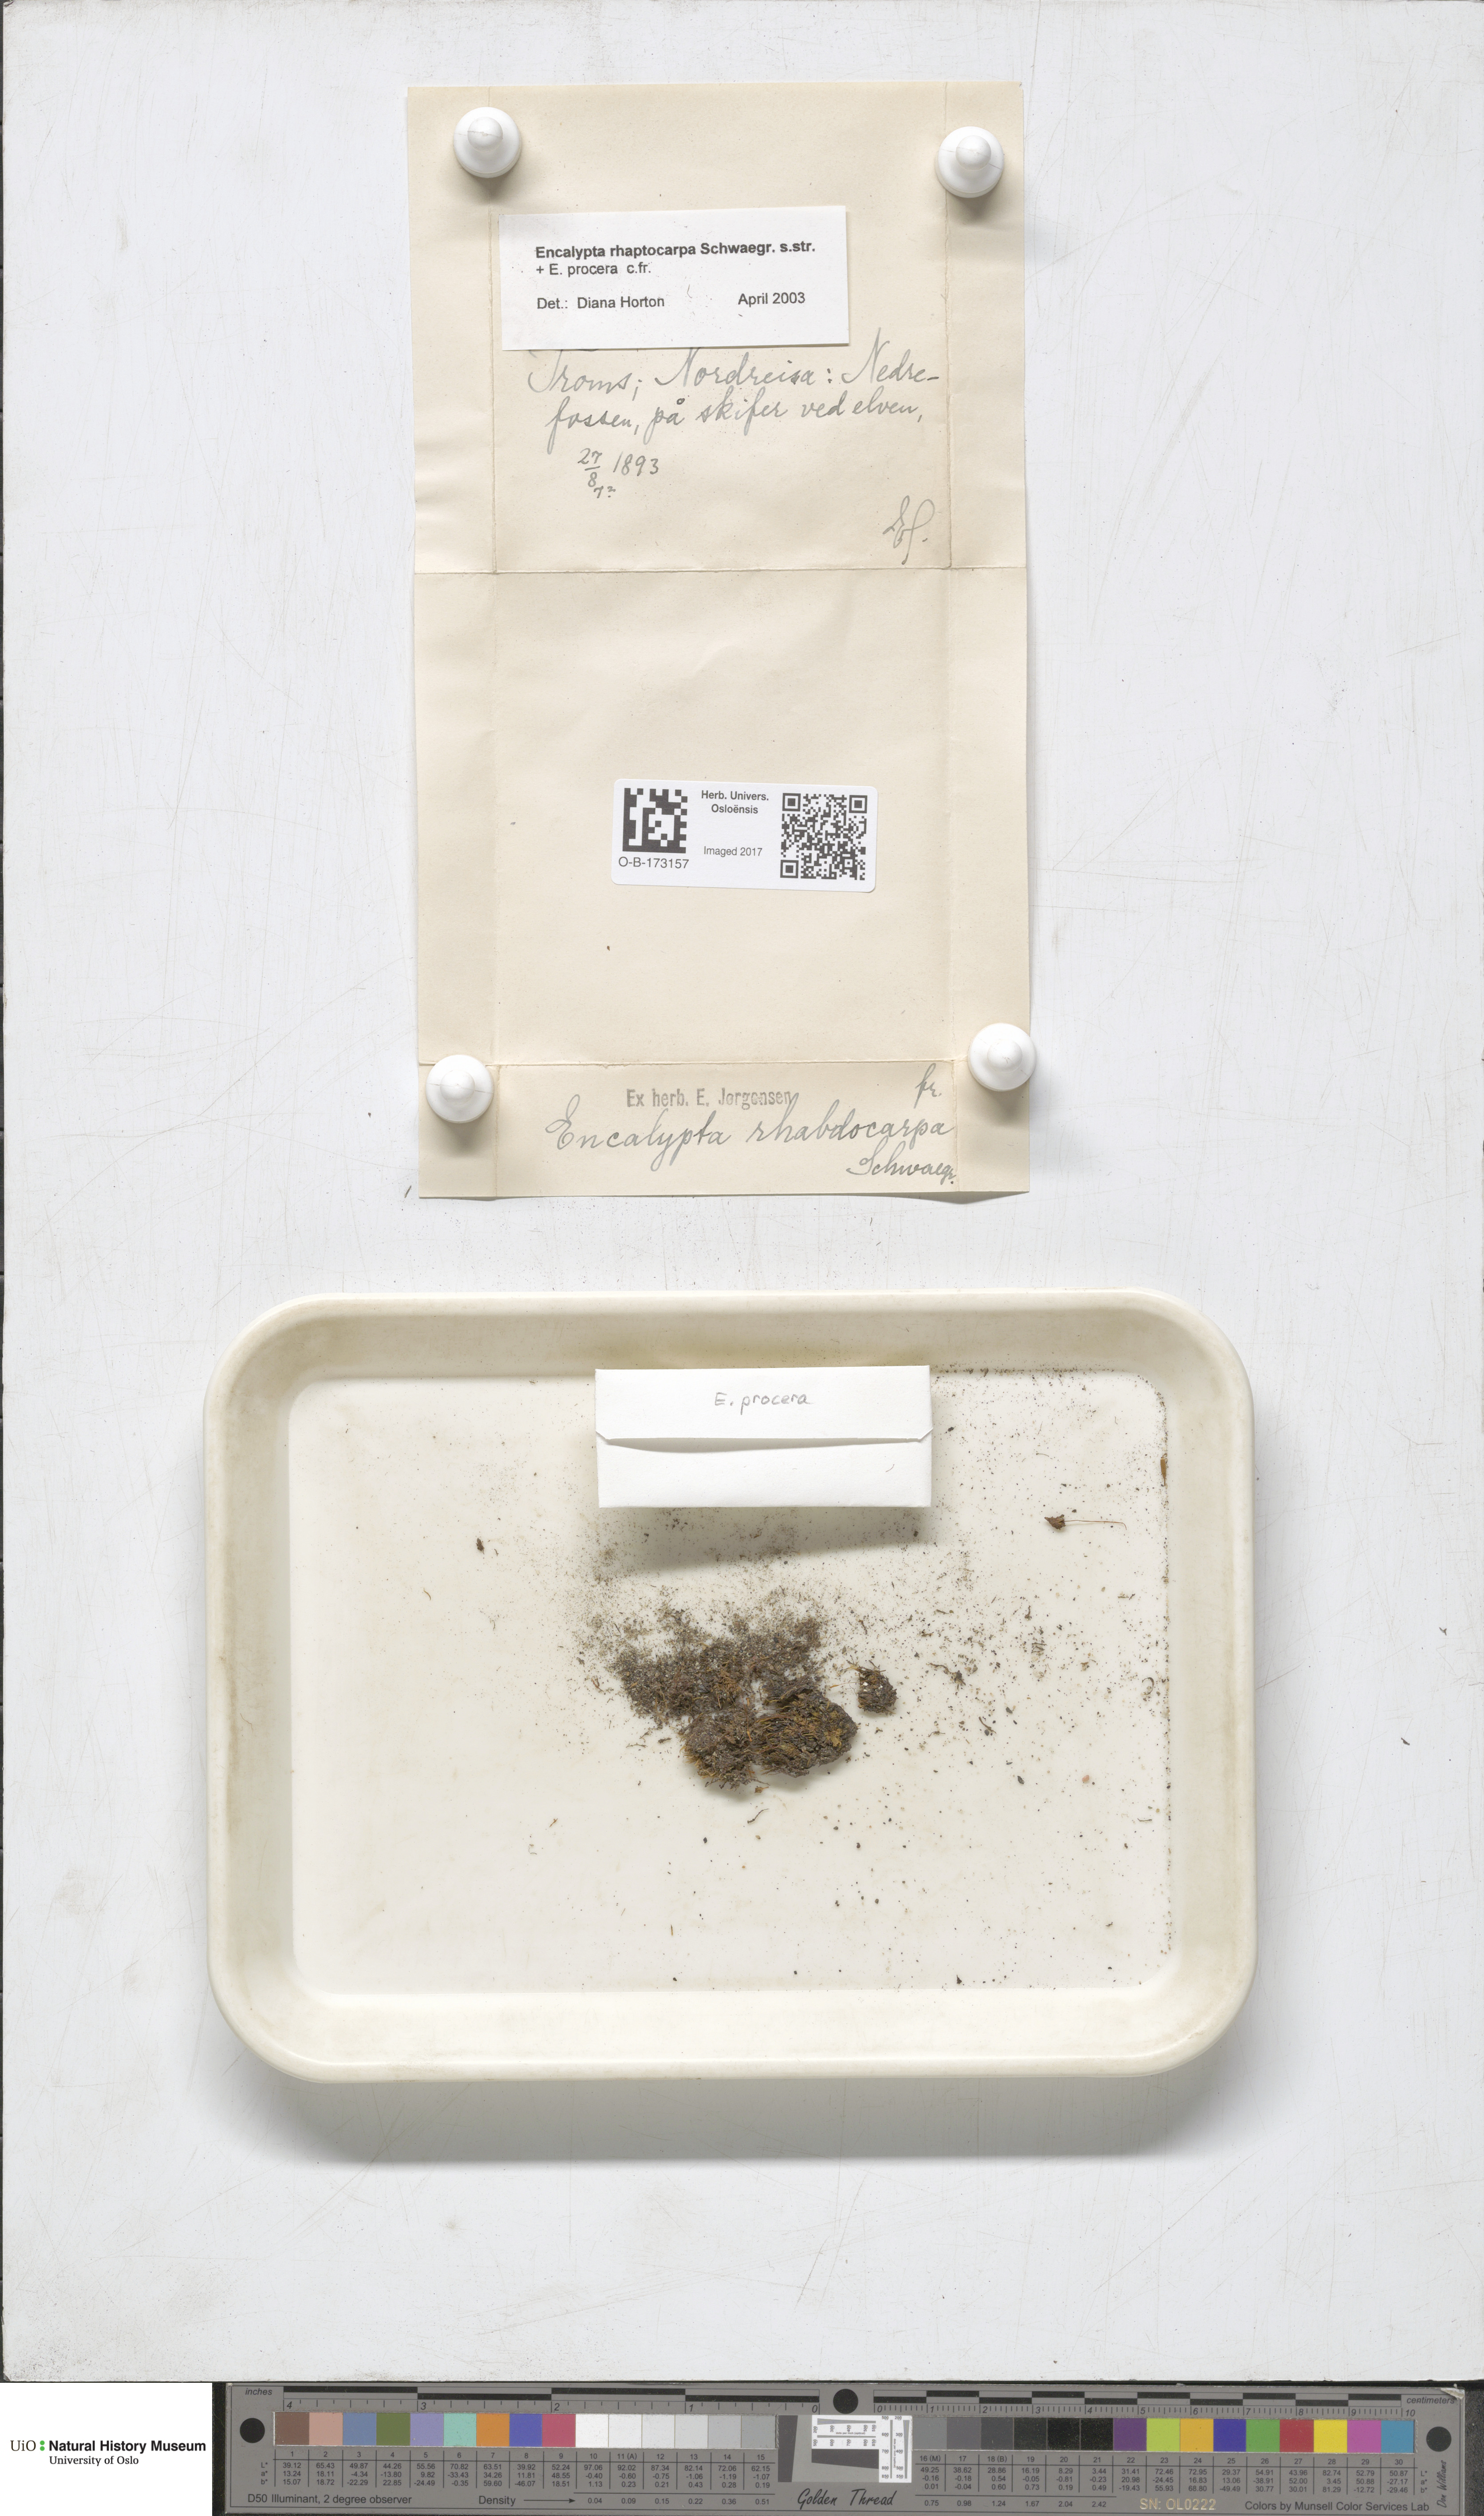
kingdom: Plantae
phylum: Bryophyta
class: Bryopsida
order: Encalyptales
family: Encalyptaceae
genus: Encalypta
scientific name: Encalypta rhaptocarpa
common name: Ribbed extinguisher moss
